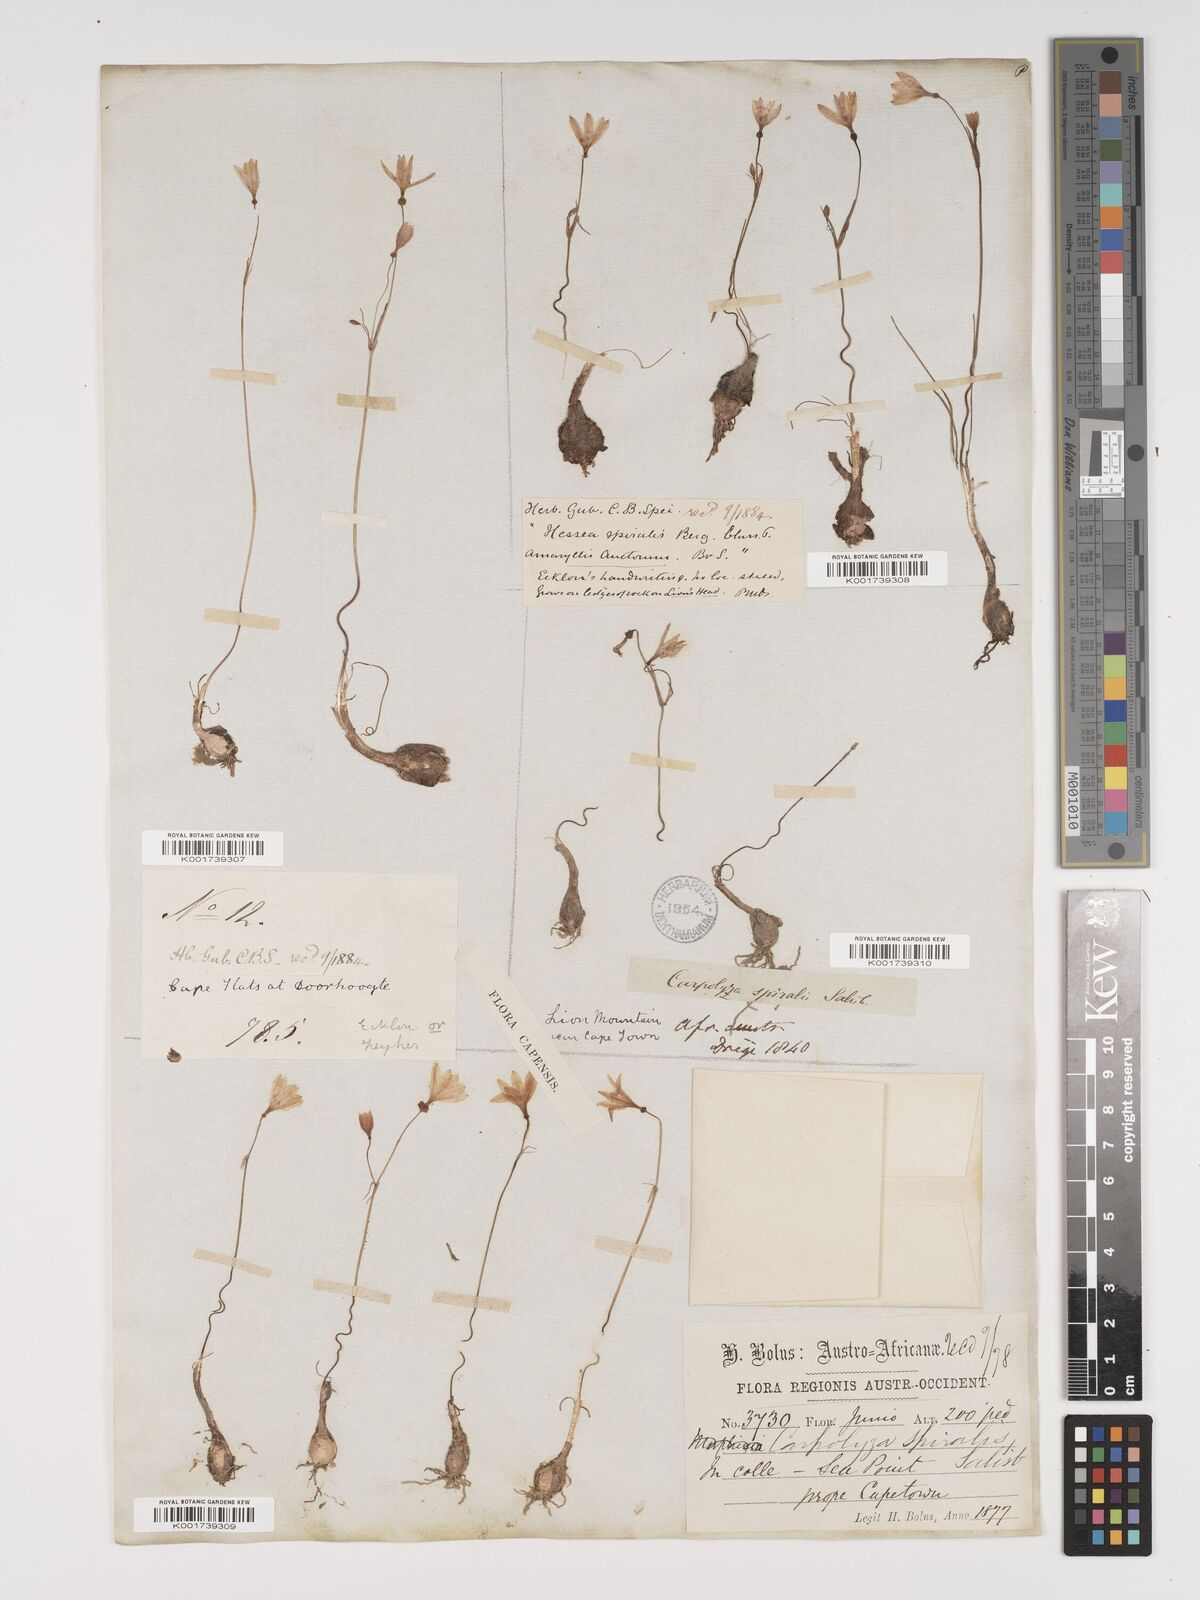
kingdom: Plantae
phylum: Tracheophyta
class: Liliopsida
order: Asparagales
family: Amaryllidaceae
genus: Strumaria
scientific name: Strumaria spiralis
